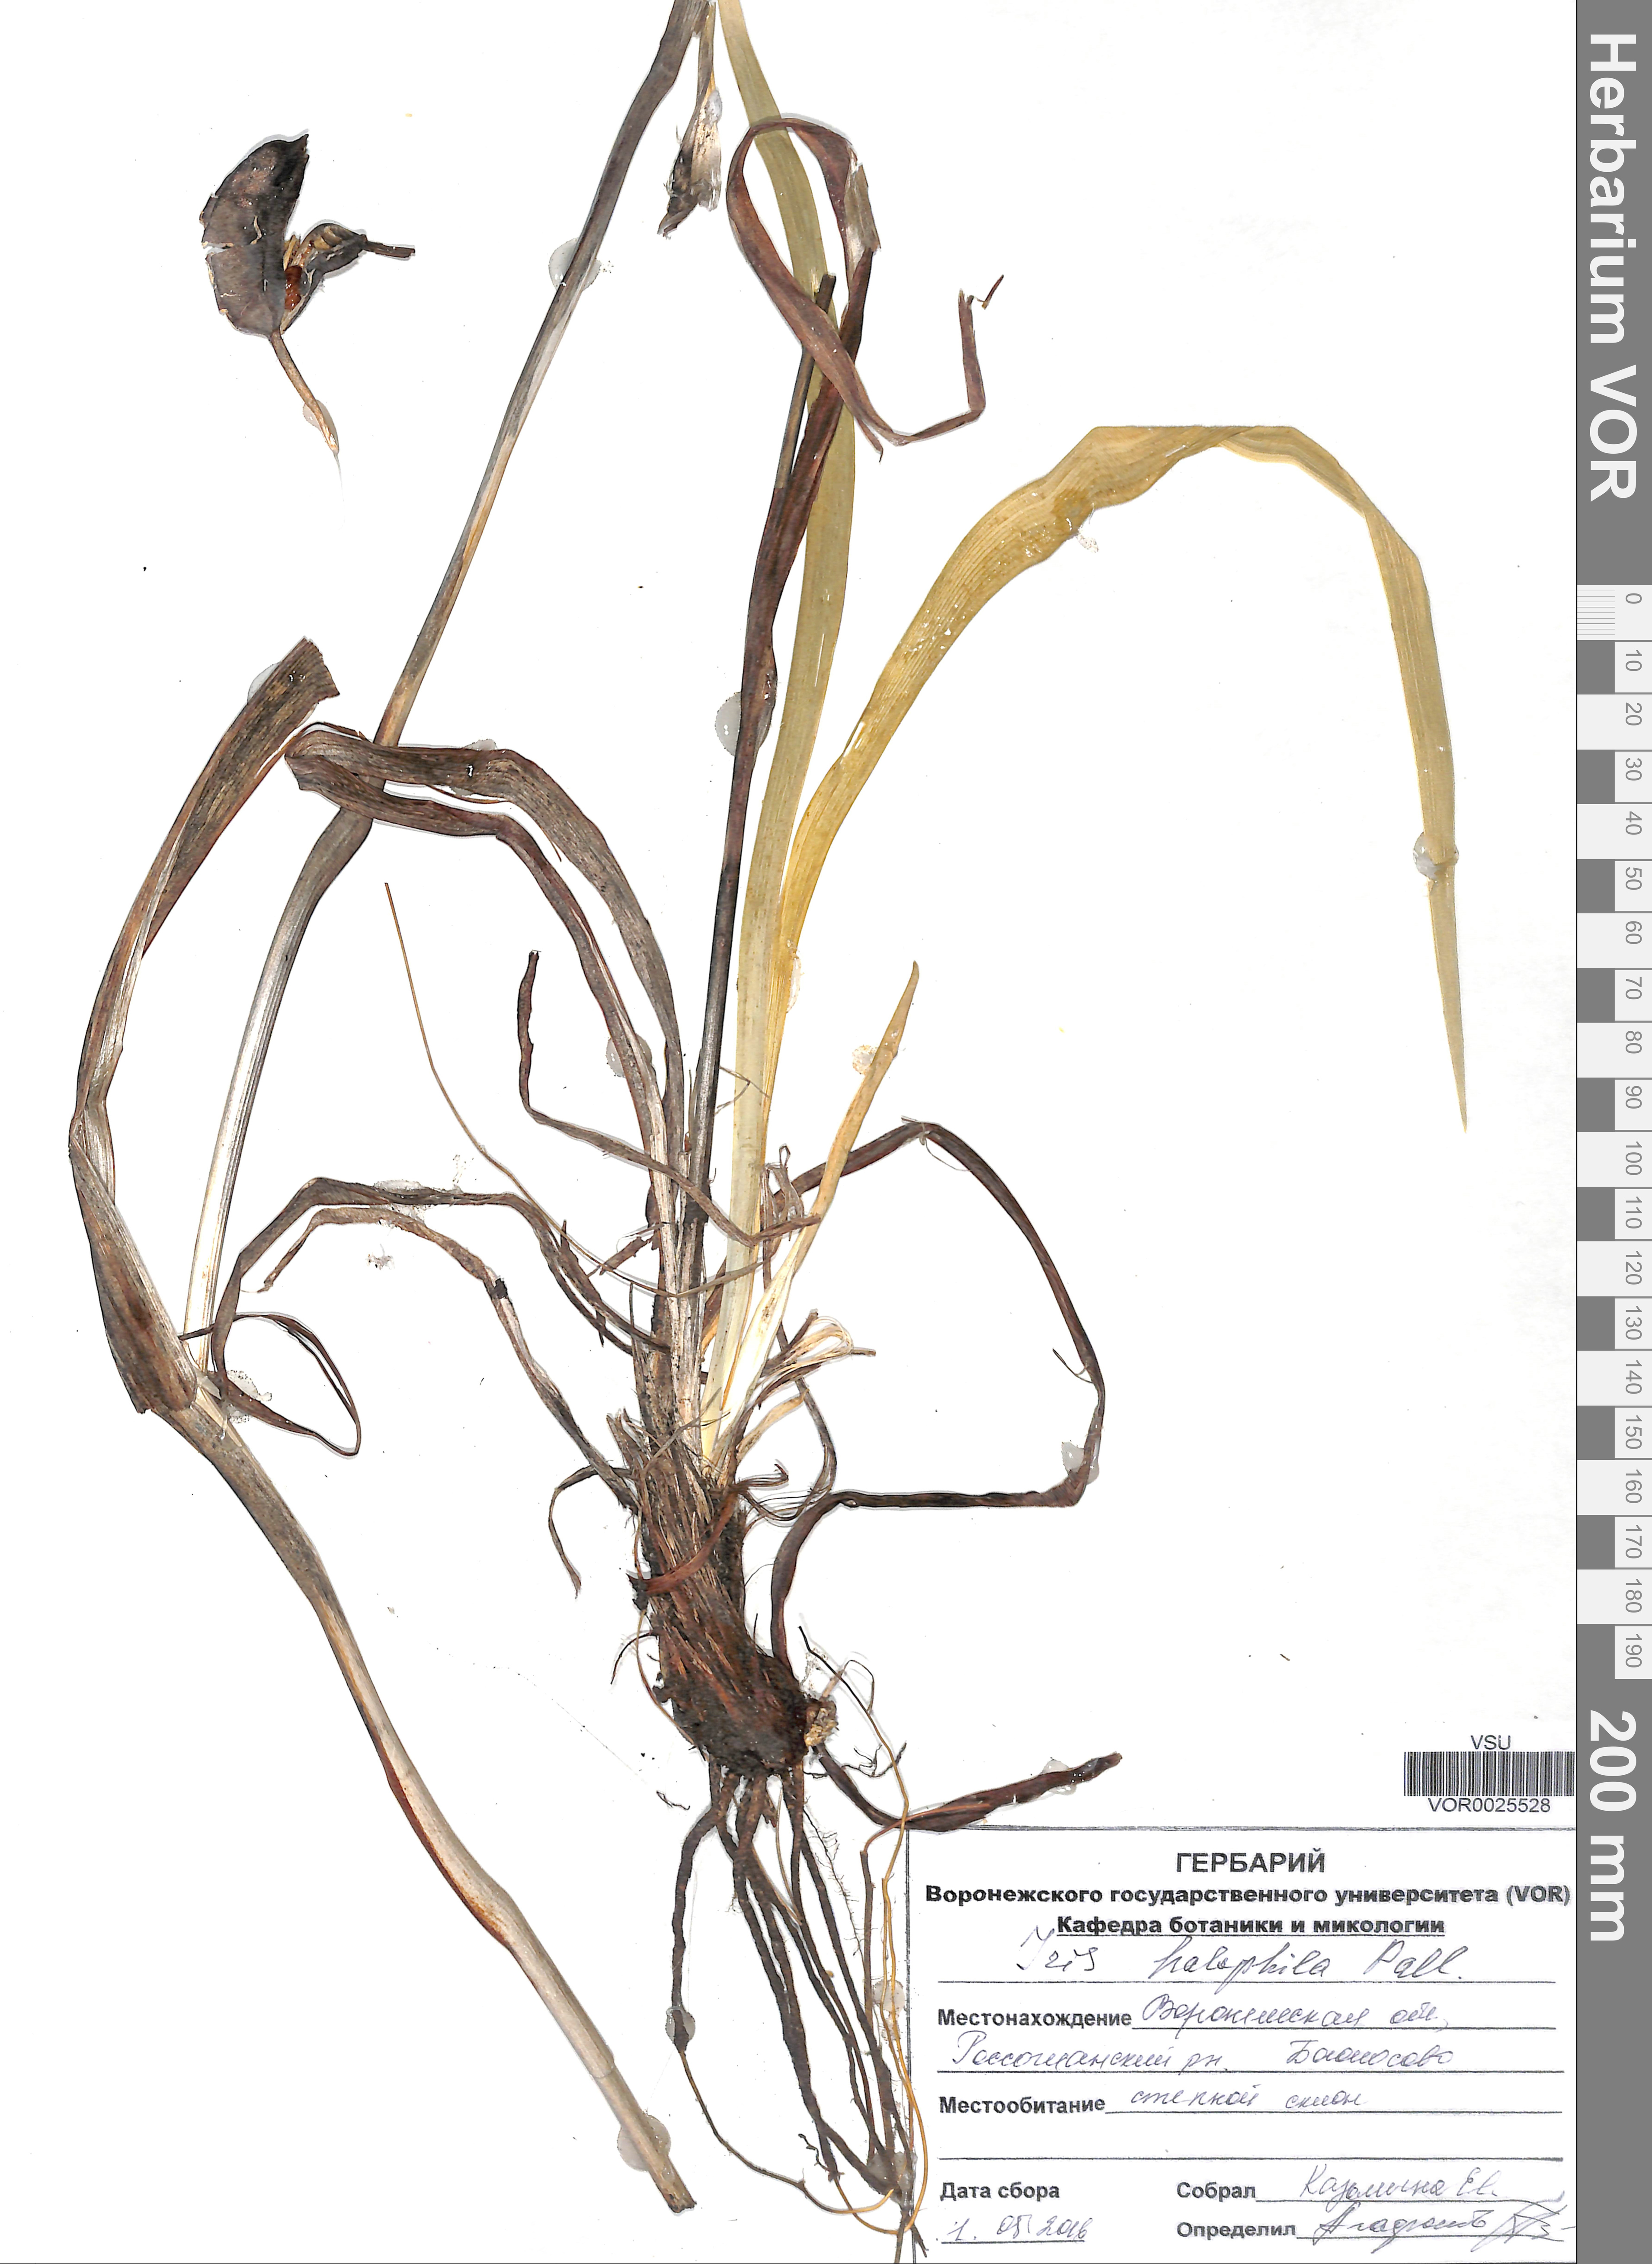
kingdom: Plantae
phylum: Tracheophyta
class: Liliopsida
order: Asparagales
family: Iridaceae
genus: Iris
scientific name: Iris halophila
